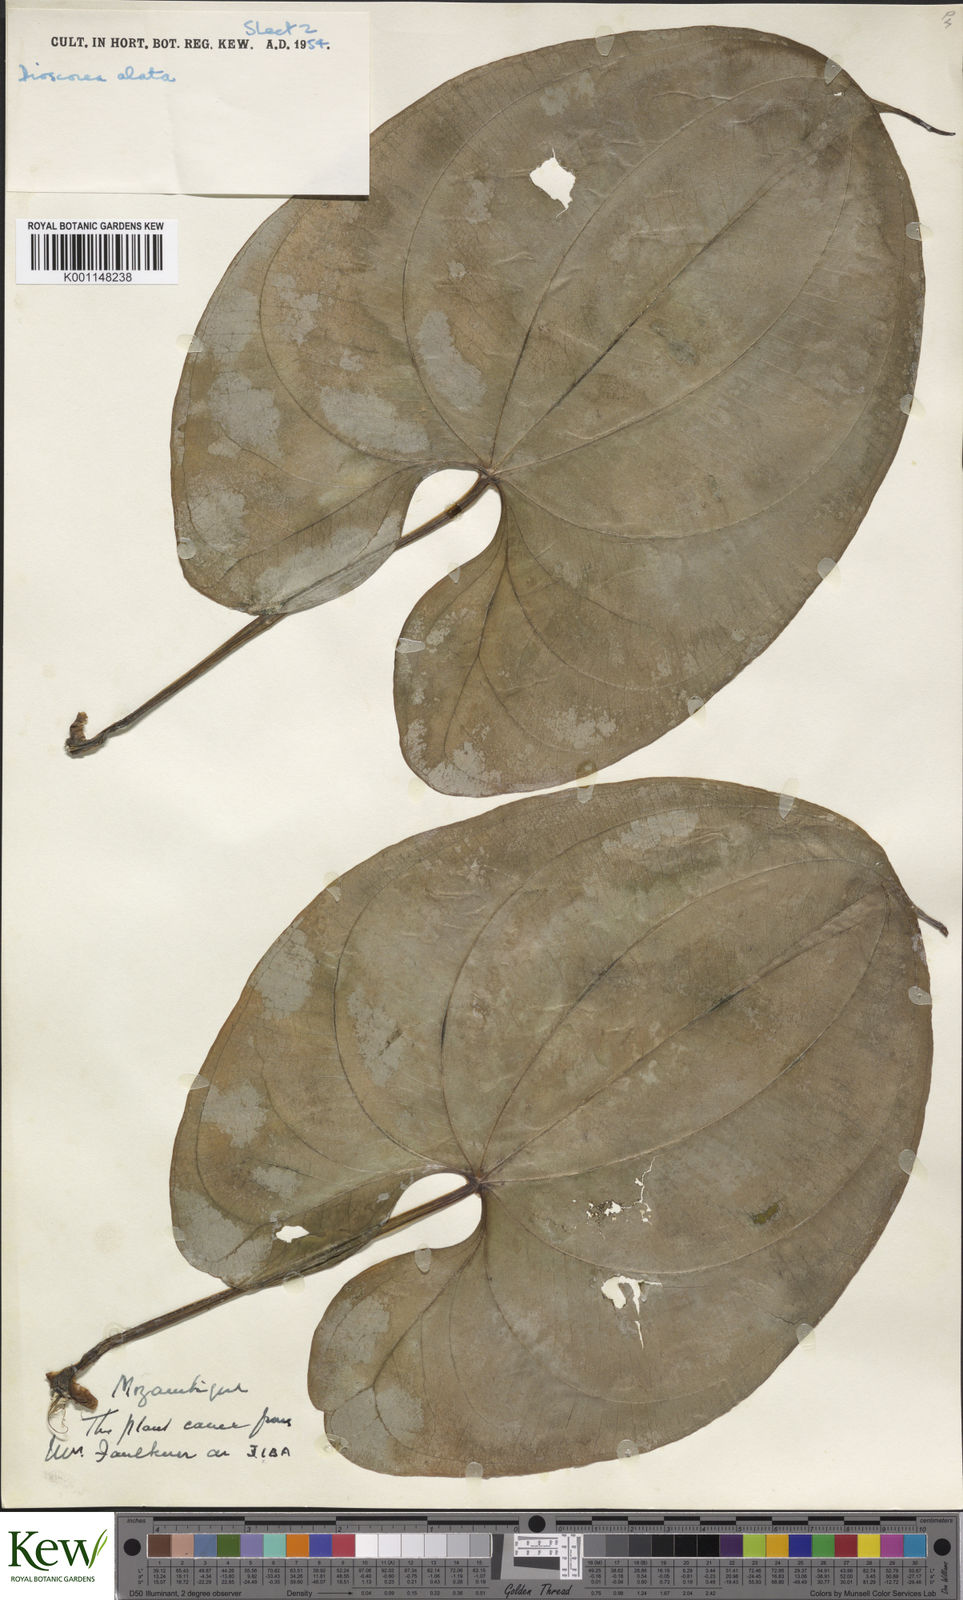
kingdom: Plantae
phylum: Tracheophyta
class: Liliopsida
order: Dioscoreales
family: Dioscoreaceae
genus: Dioscorea
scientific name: Dioscorea alata
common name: Water yam
